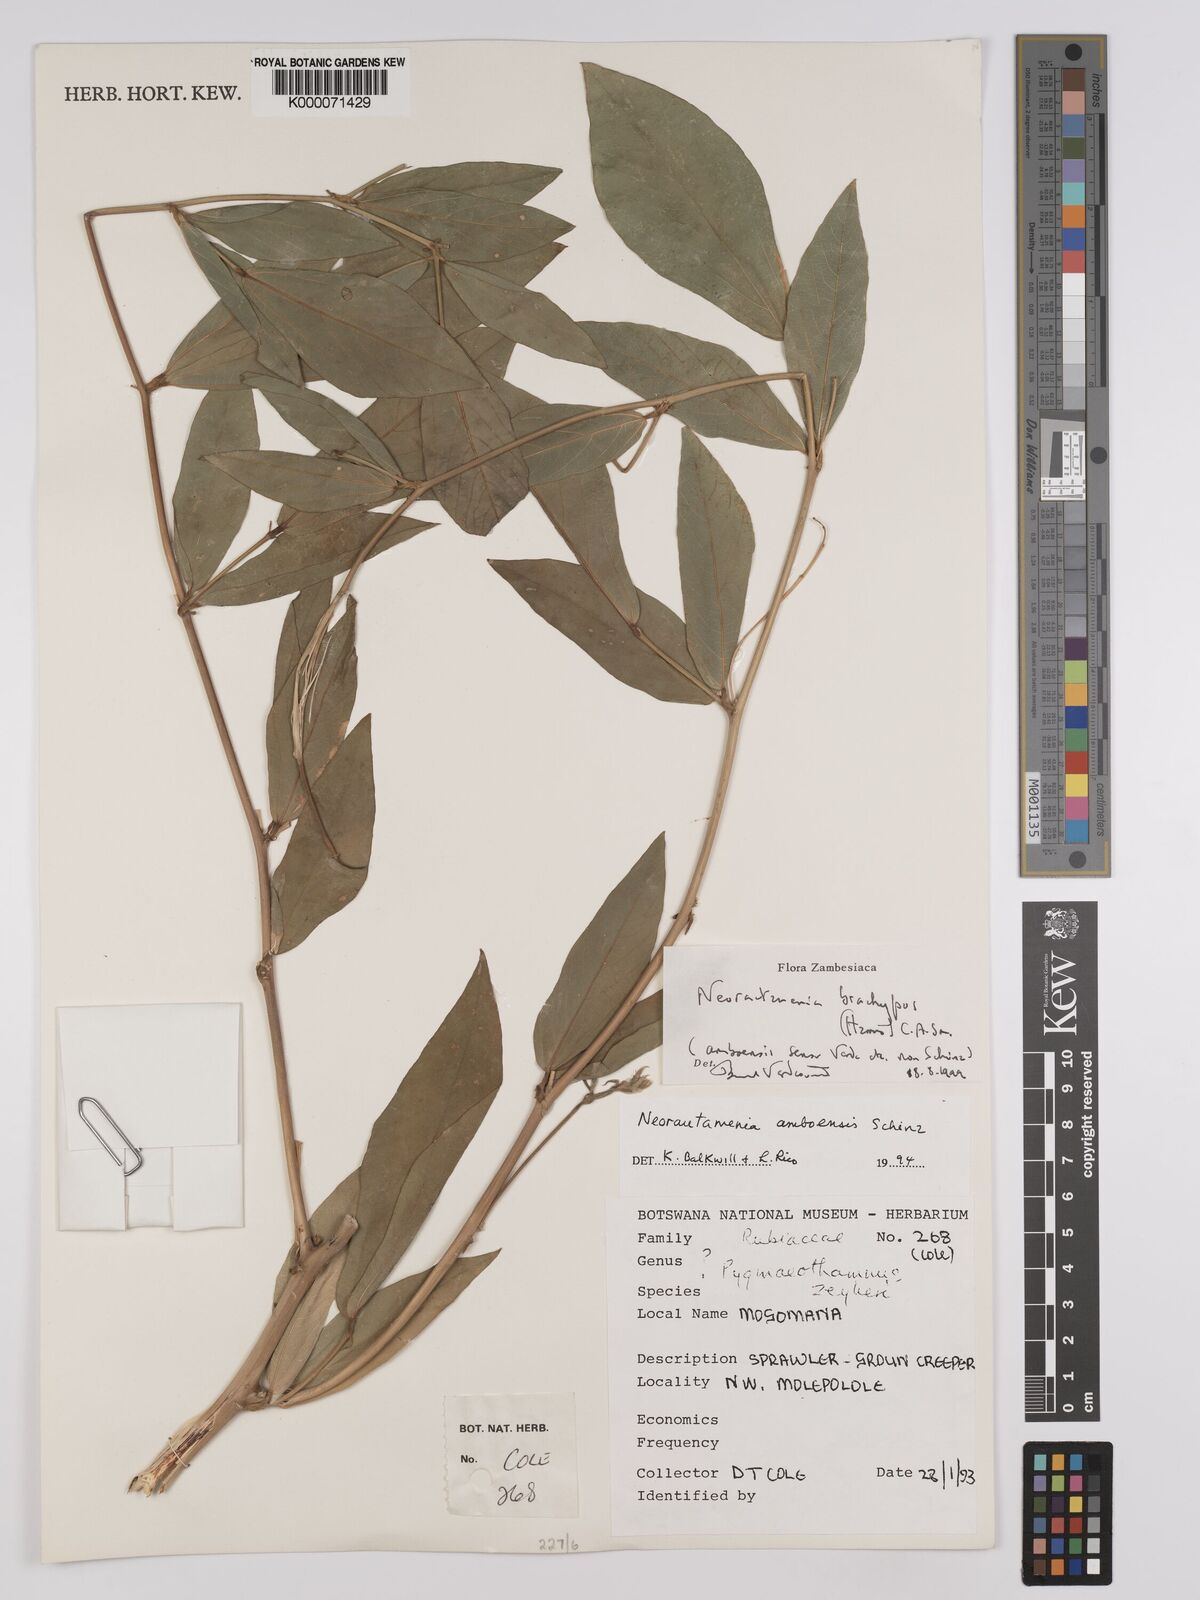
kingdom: Plantae
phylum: Tracheophyta
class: Magnoliopsida
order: Fabales
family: Fabaceae
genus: Neorautanenia
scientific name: Neorautanenia
